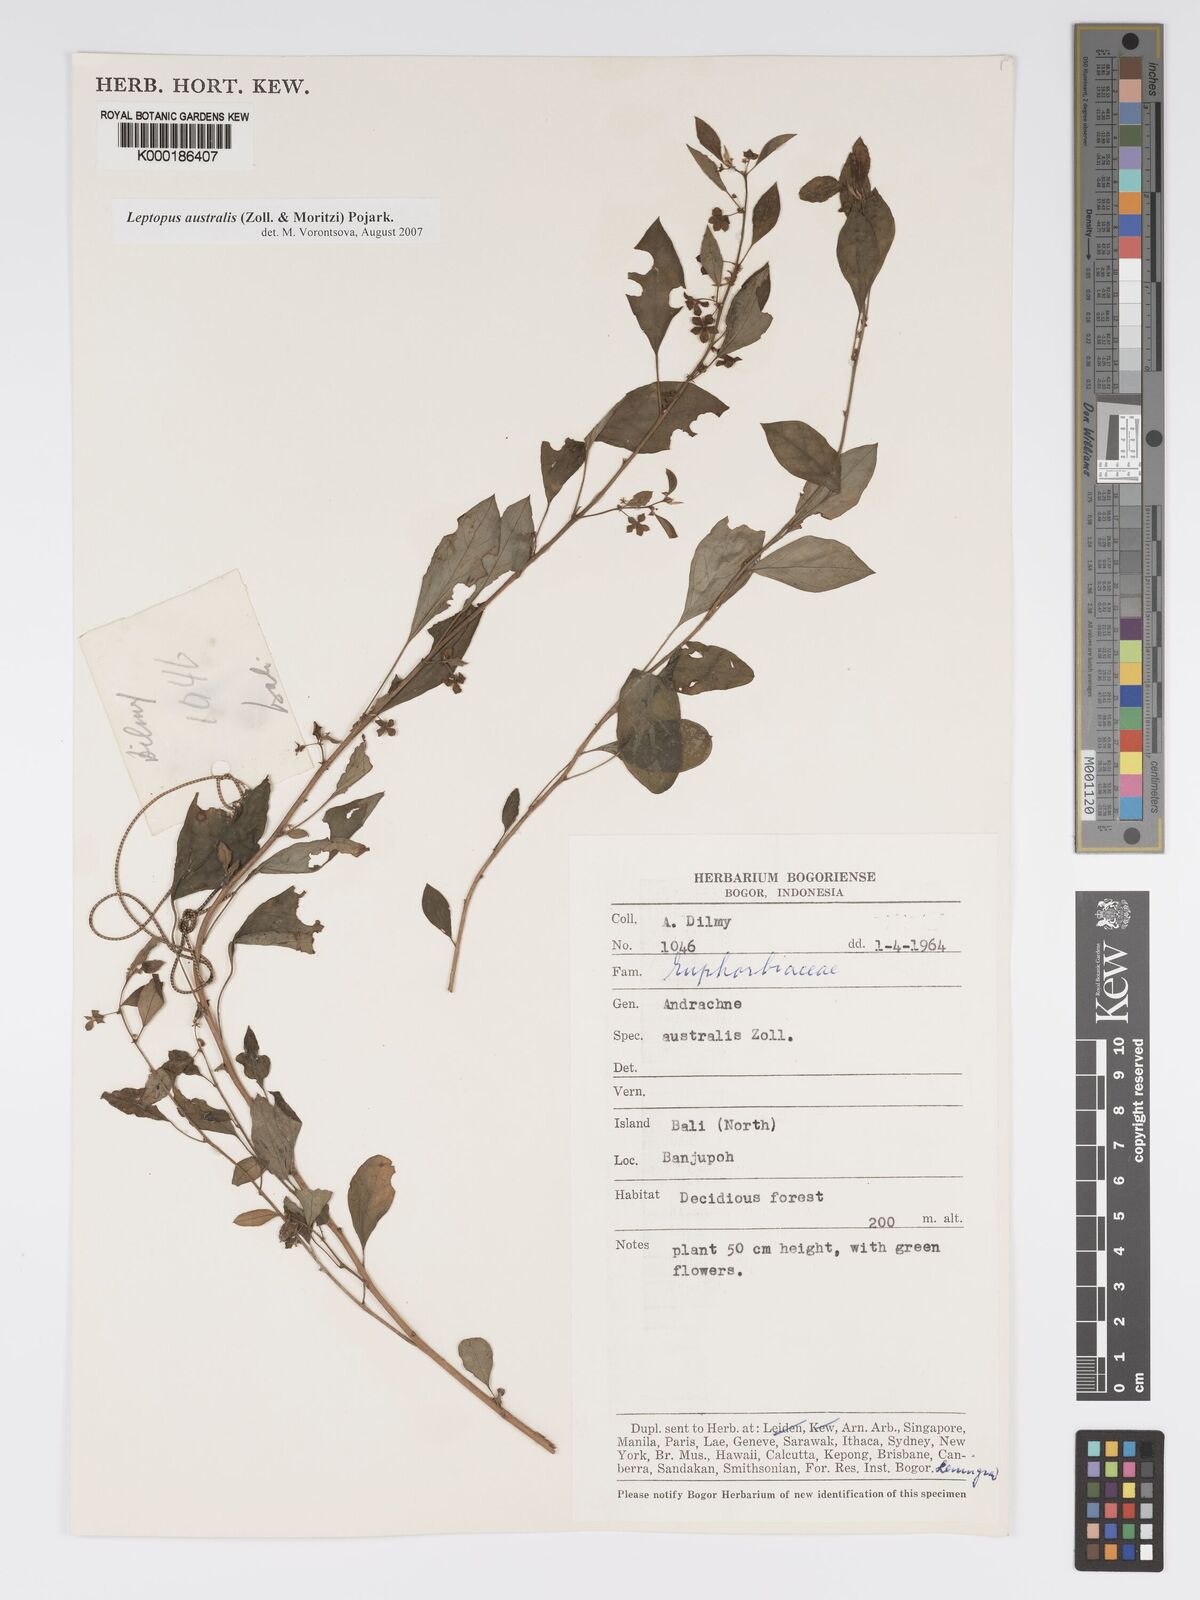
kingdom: Plantae
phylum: Tracheophyta
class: Magnoliopsida
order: Malpighiales
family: Phyllanthaceae
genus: Leptopus
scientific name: Leptopus australis
